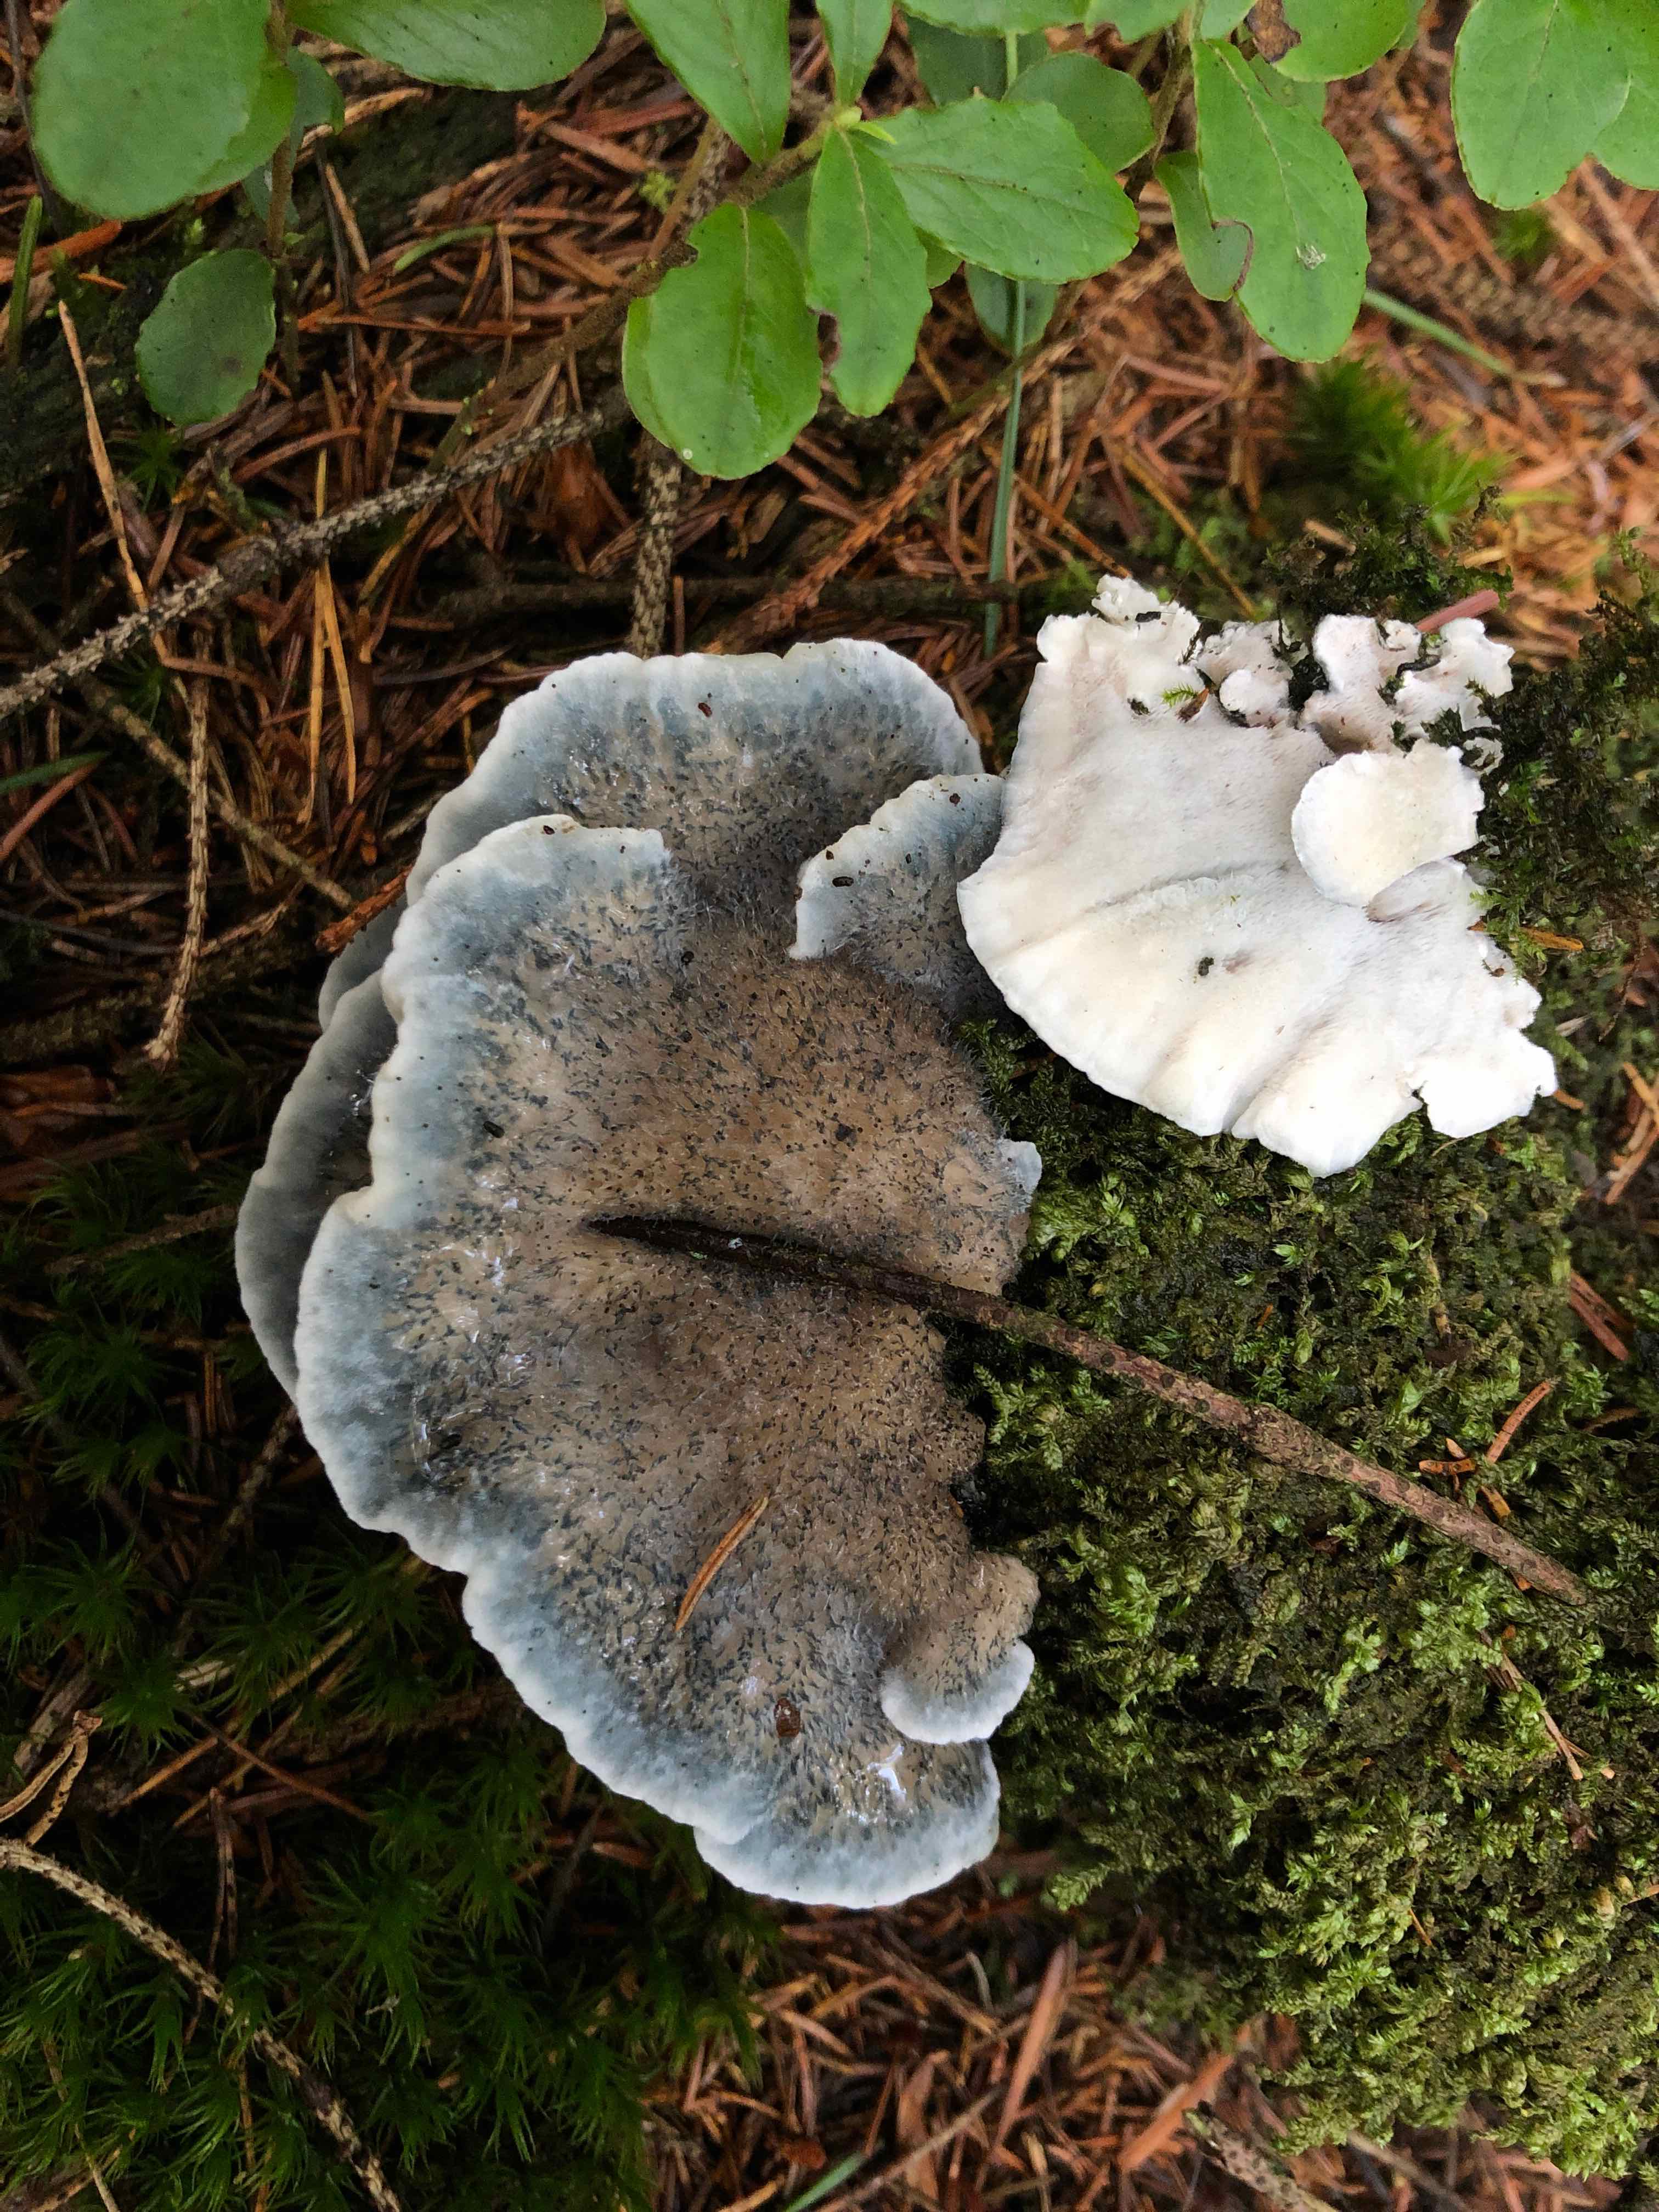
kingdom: Fungi
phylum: Basidiomycota
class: Agaricomycetes
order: Polyporales
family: Polyporaceae
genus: Cyanosporus
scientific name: Cyanosporus caesius
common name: blålig kødporesvamp
